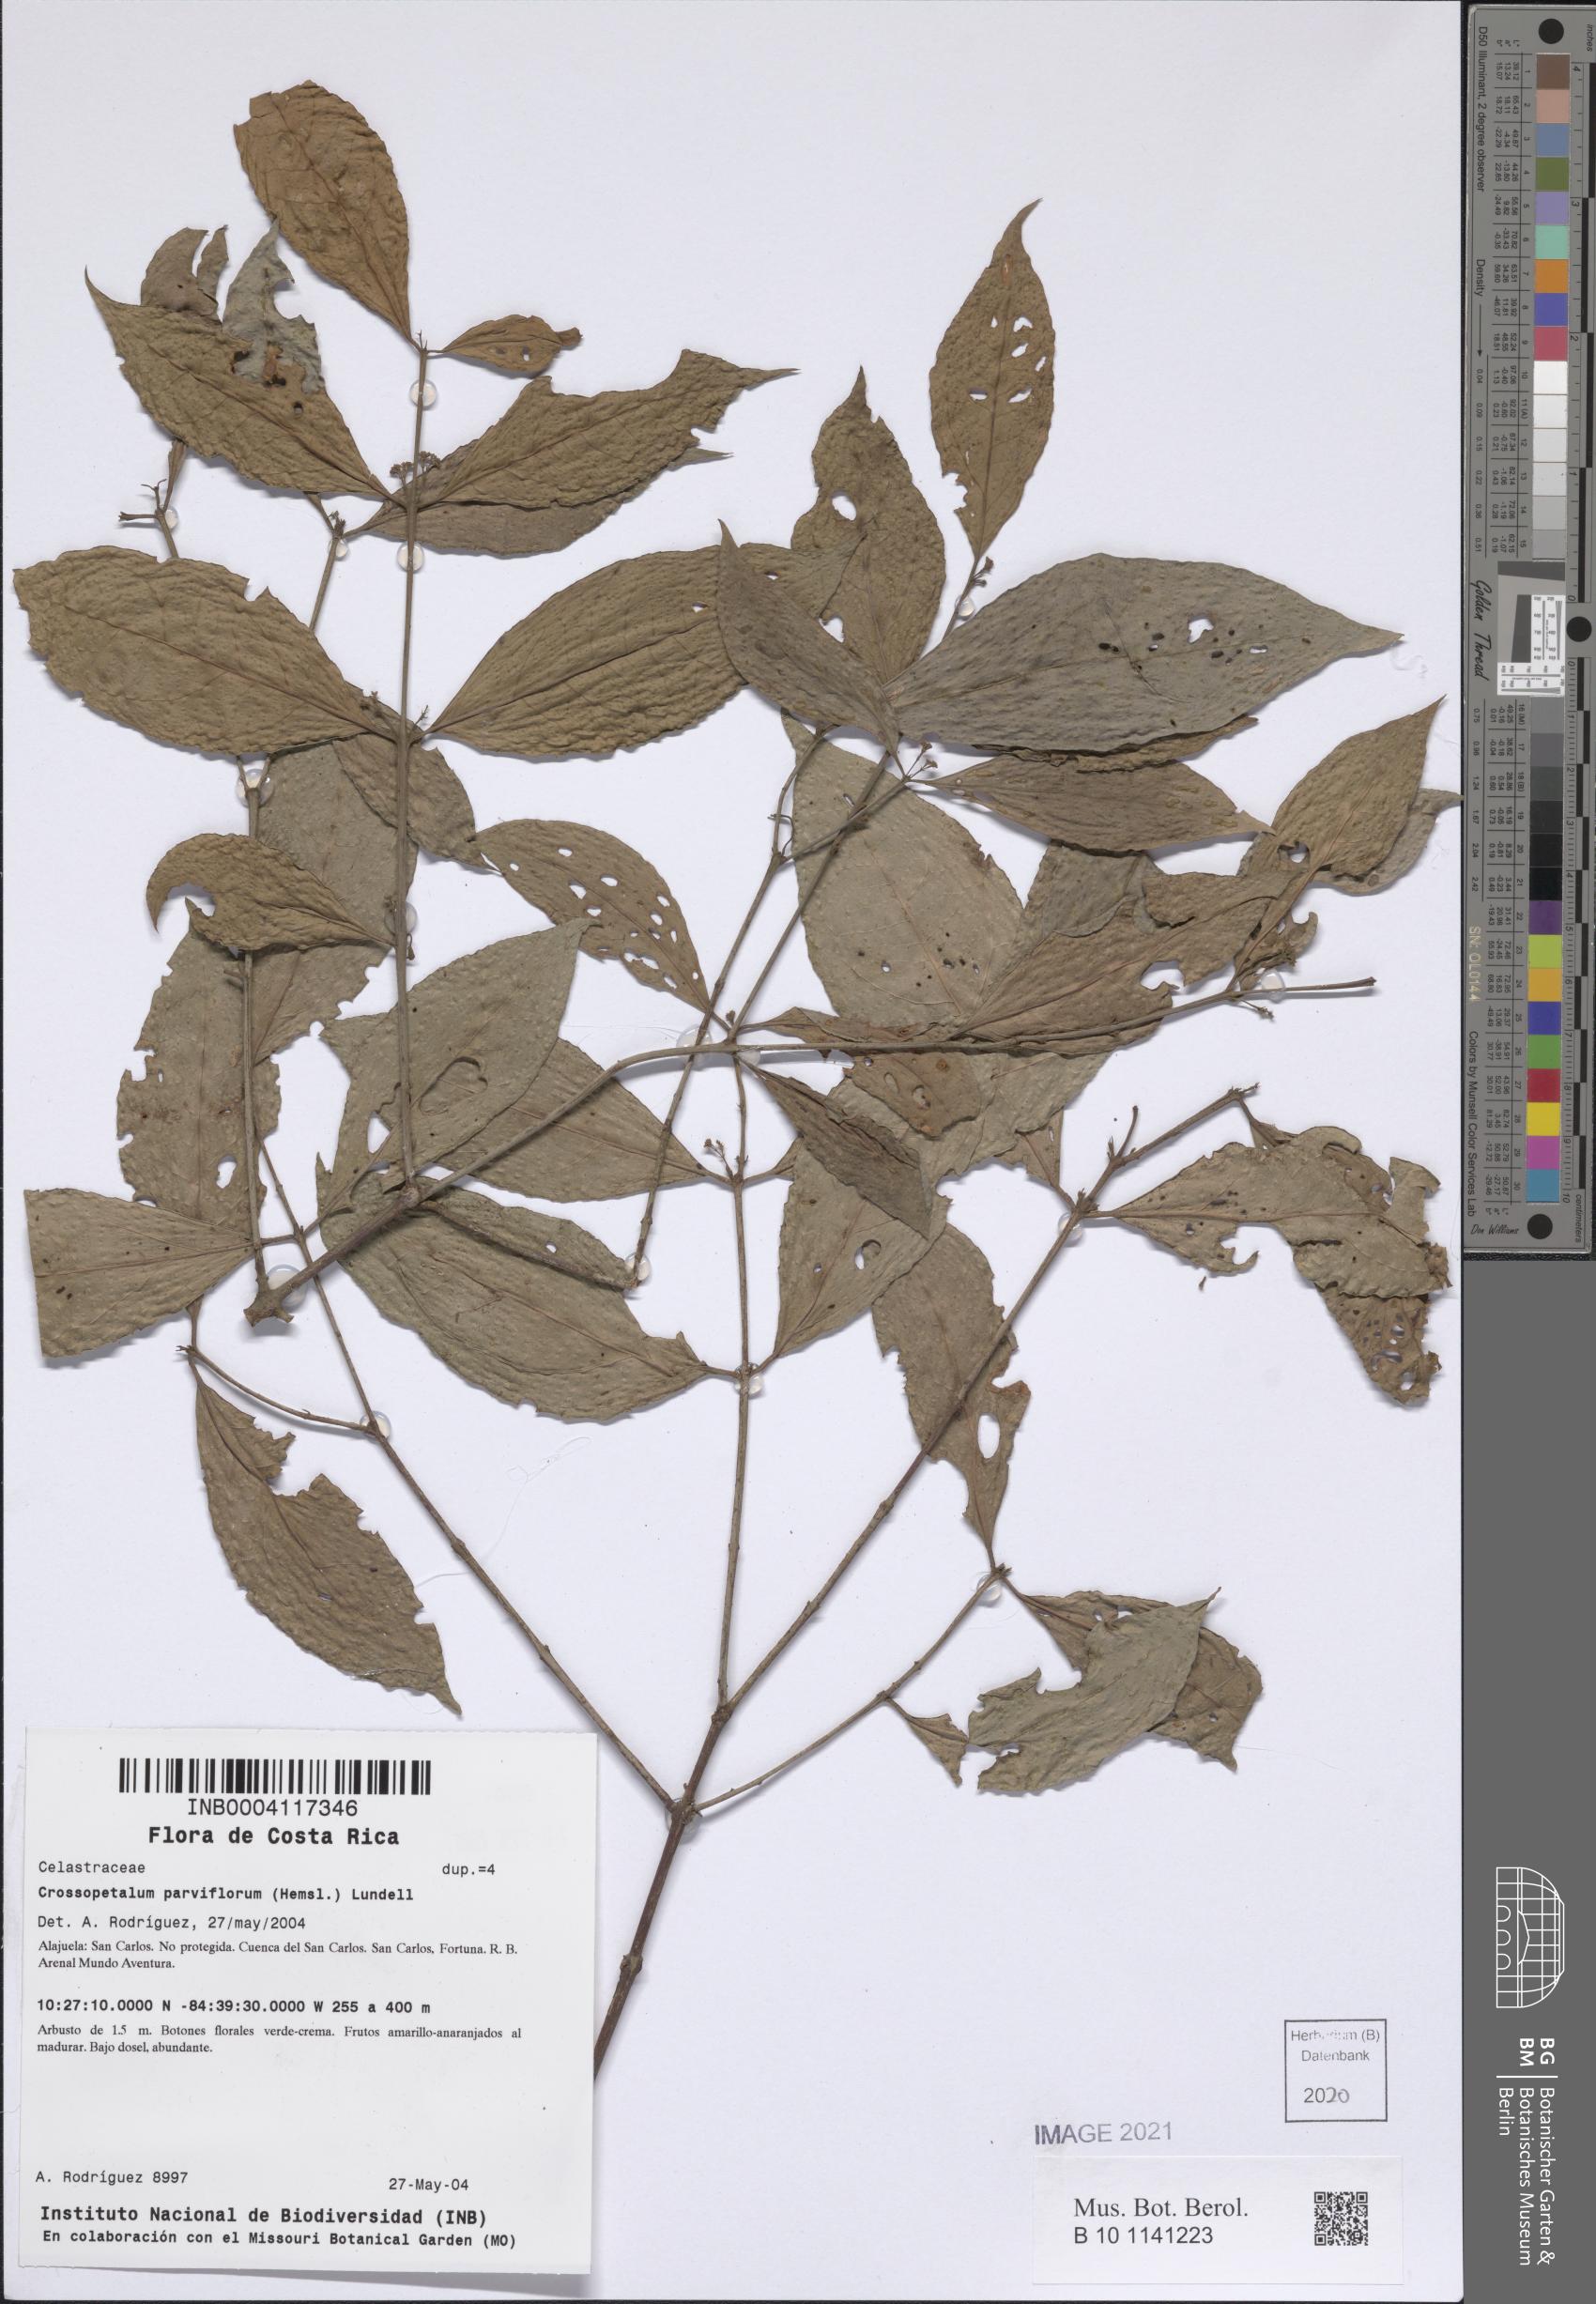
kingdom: Plantae
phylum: Tracheophyta
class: Magnoliopsida
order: Celastrales
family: Celastraceae
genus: Crossopetalum
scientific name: Crossopetalum parviflorum
